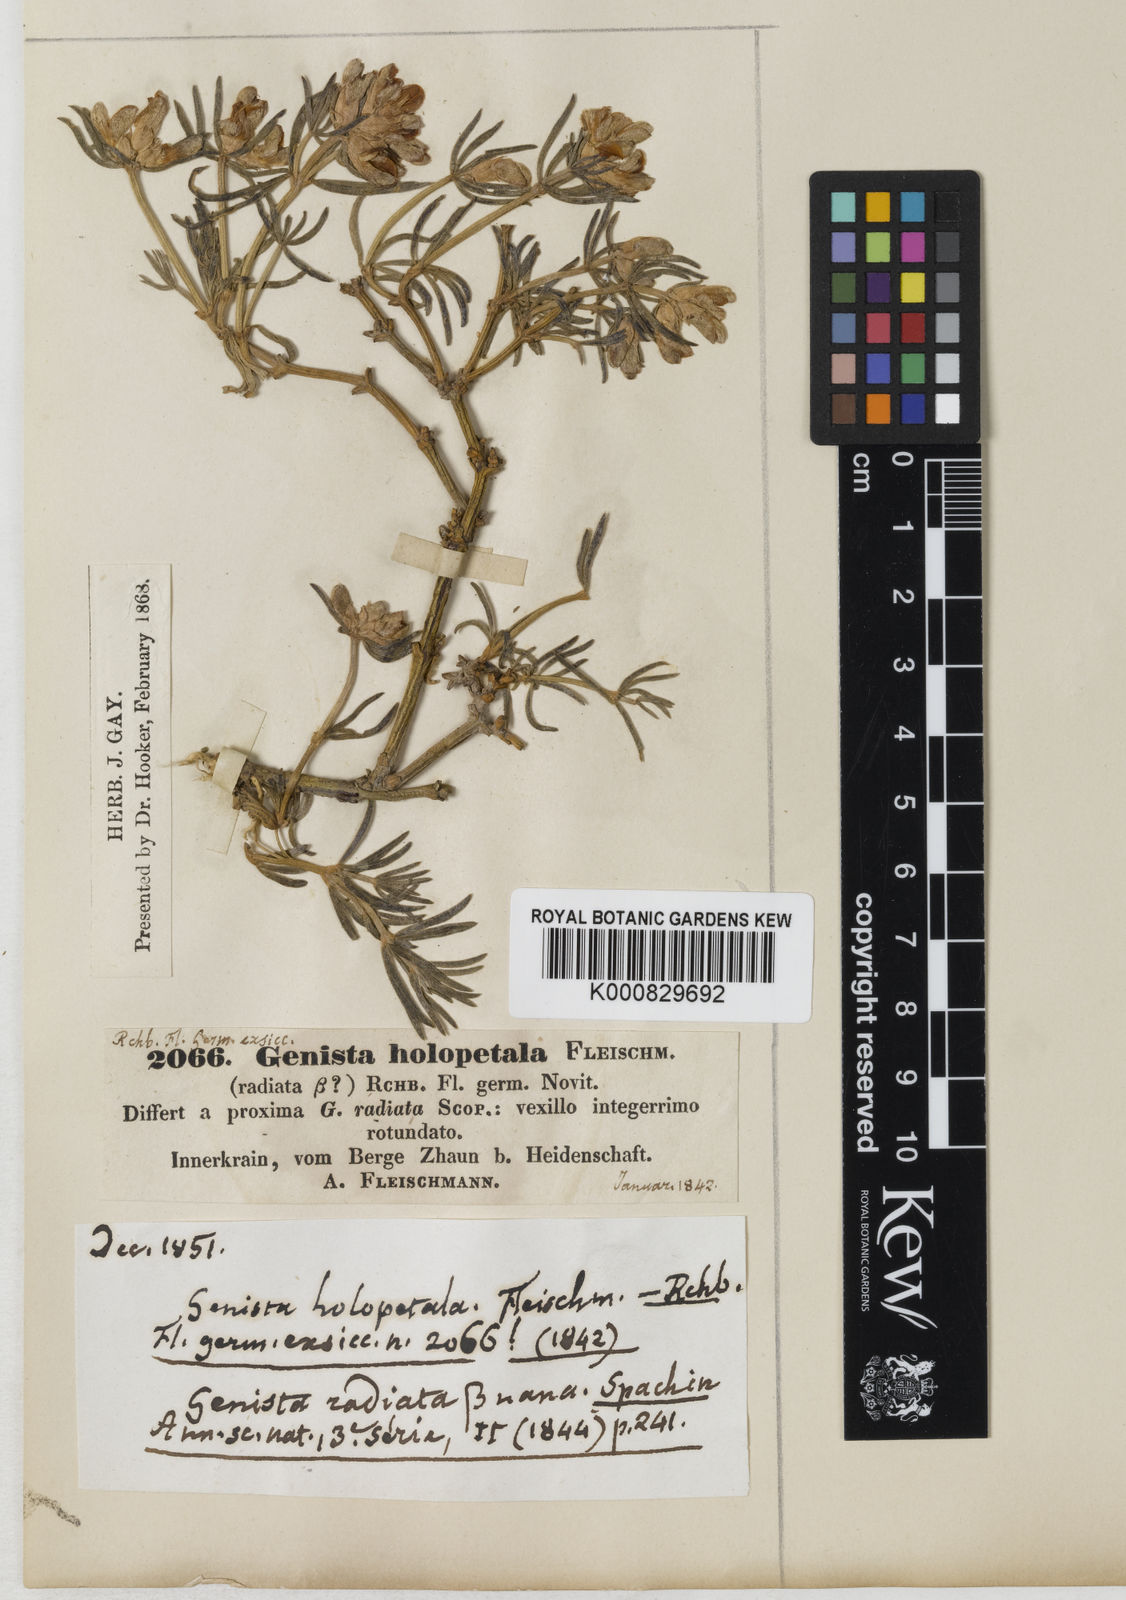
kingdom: Plantae
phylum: Tracheophyta
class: Magnoliopsida
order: Fabales
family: Fabaceae
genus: Genista
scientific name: Genista holopetala
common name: Entire-petalled gorse
